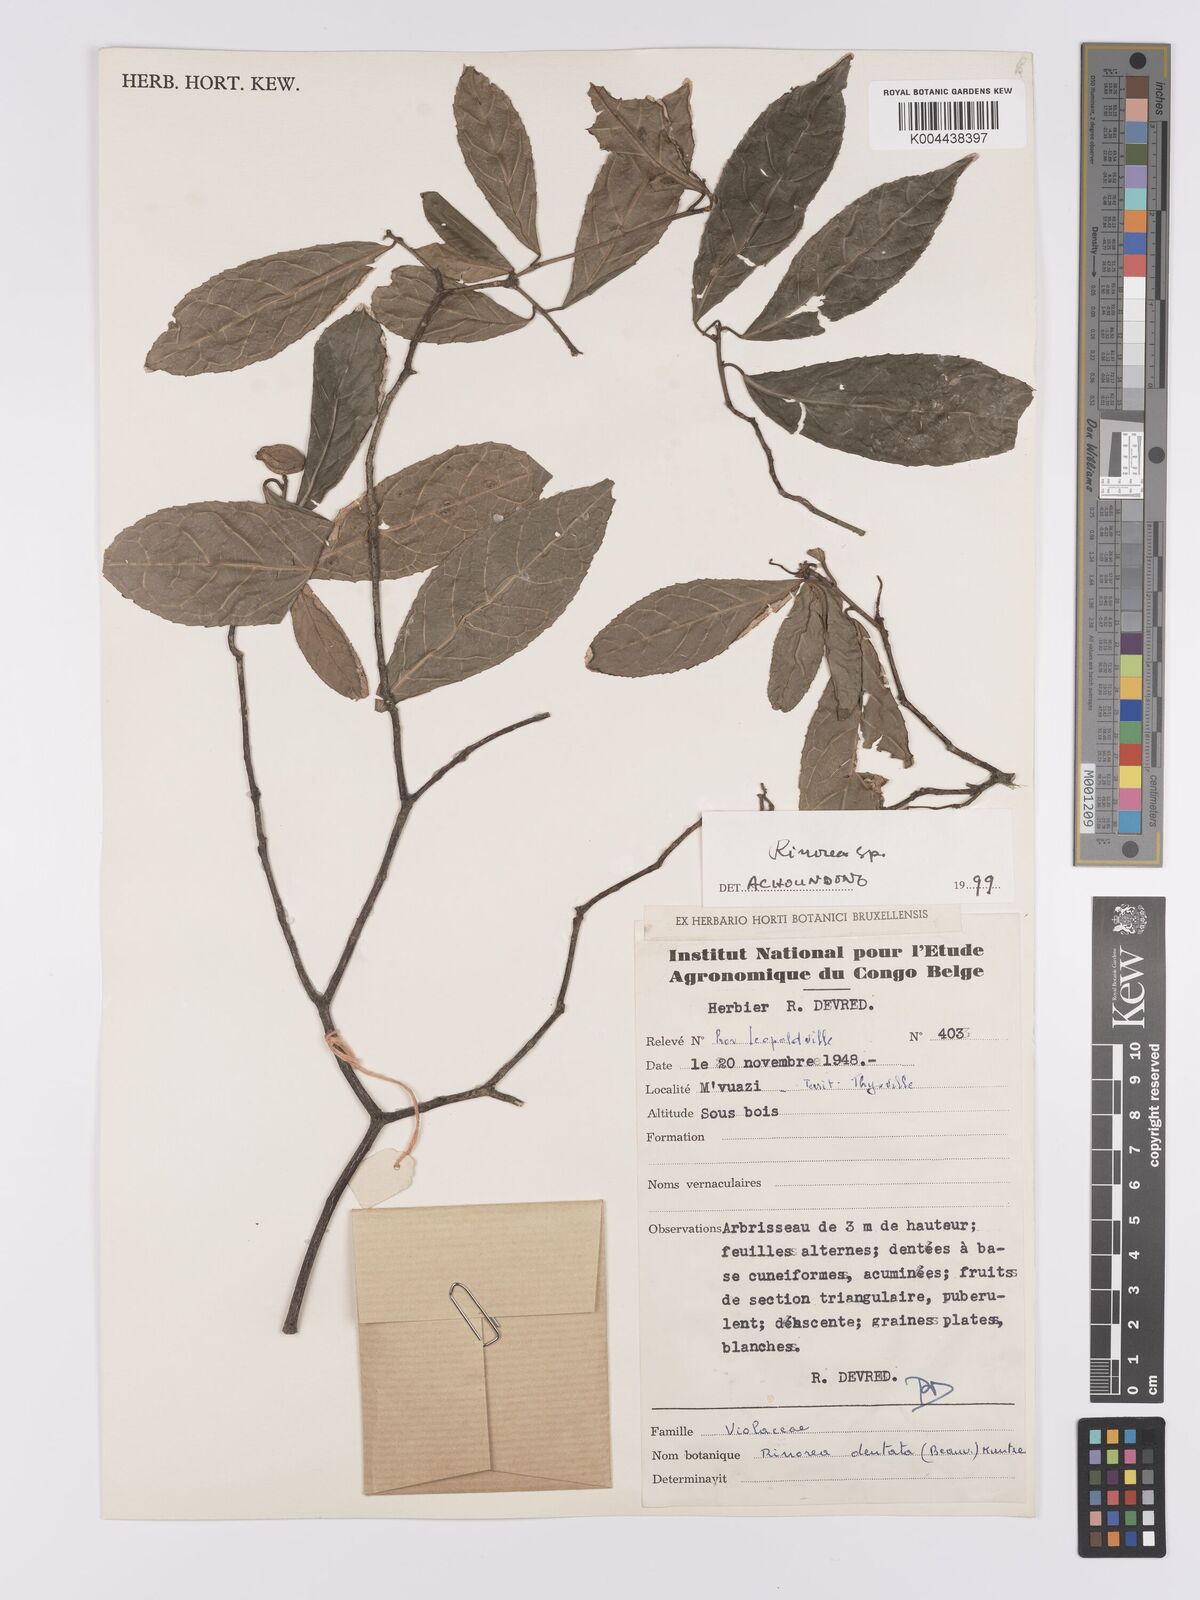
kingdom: Plantae
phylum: Tracheophyta
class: Magnoliopsida
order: Malpighiales
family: Violaceae
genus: Rinorea
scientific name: Rinorea
